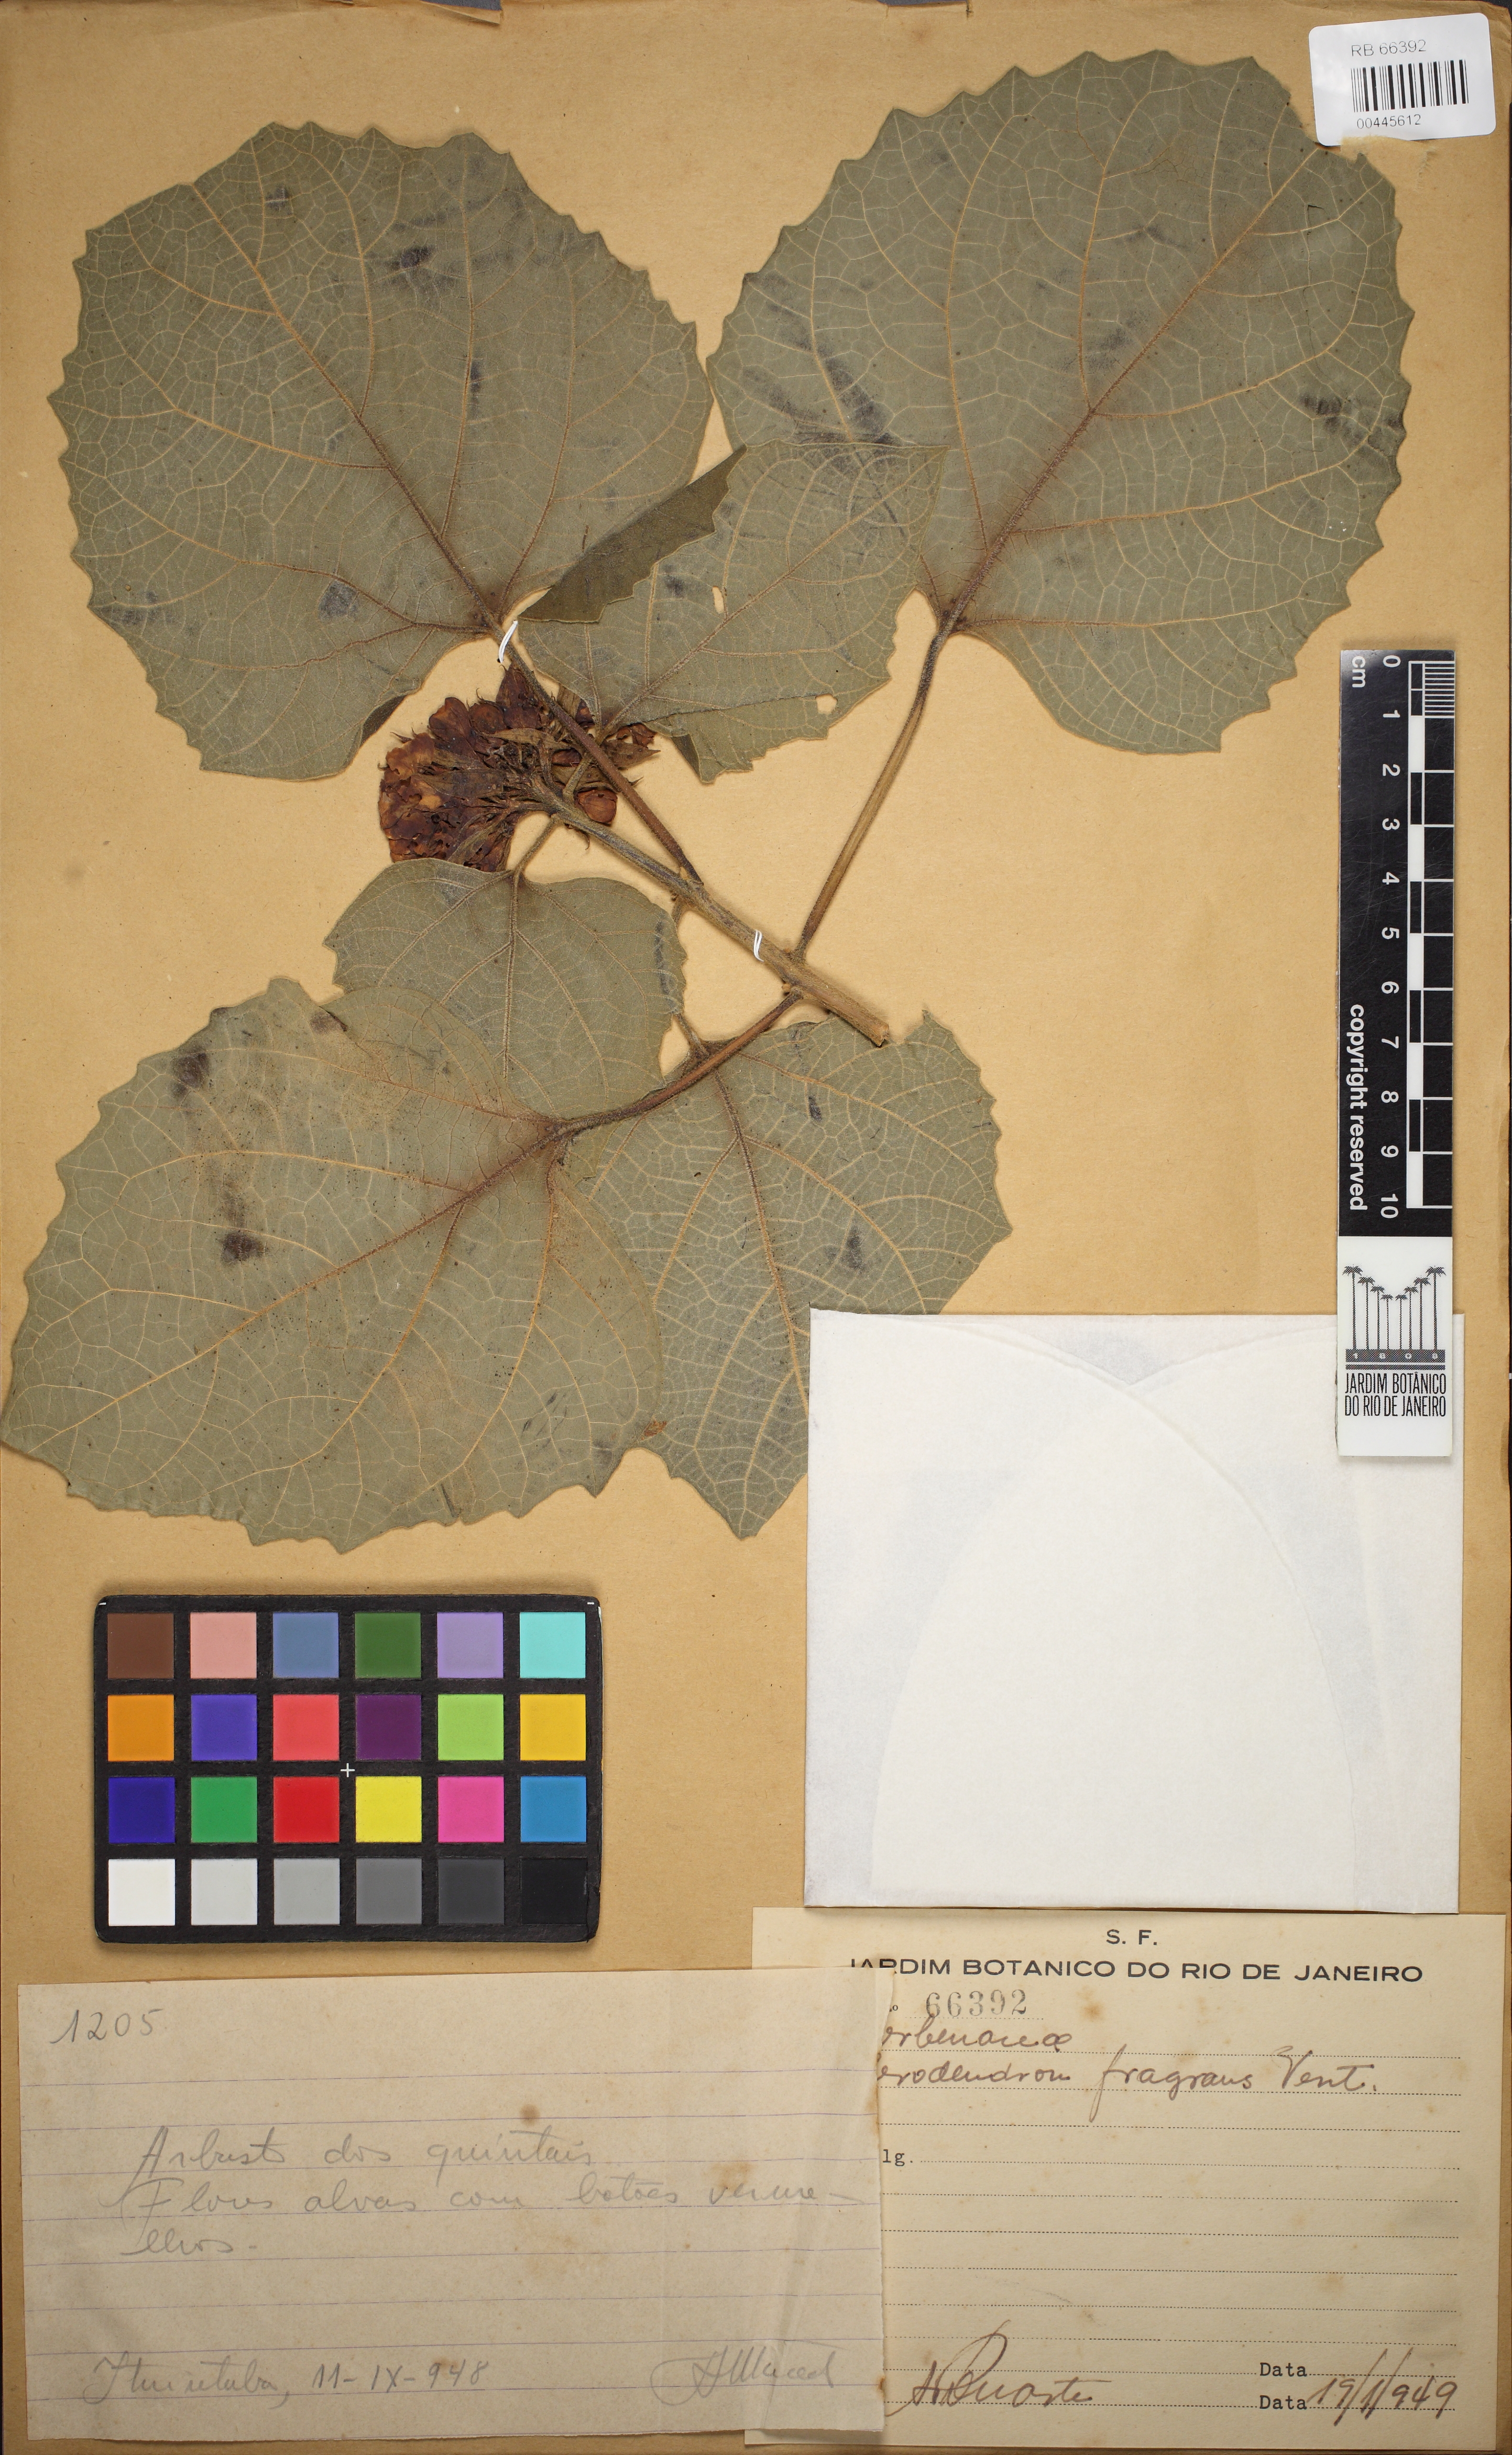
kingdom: Plantae
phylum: Tracheophyta
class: Magnoliopsida
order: Lamiales
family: Verbenaceae
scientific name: Verbenaceae
